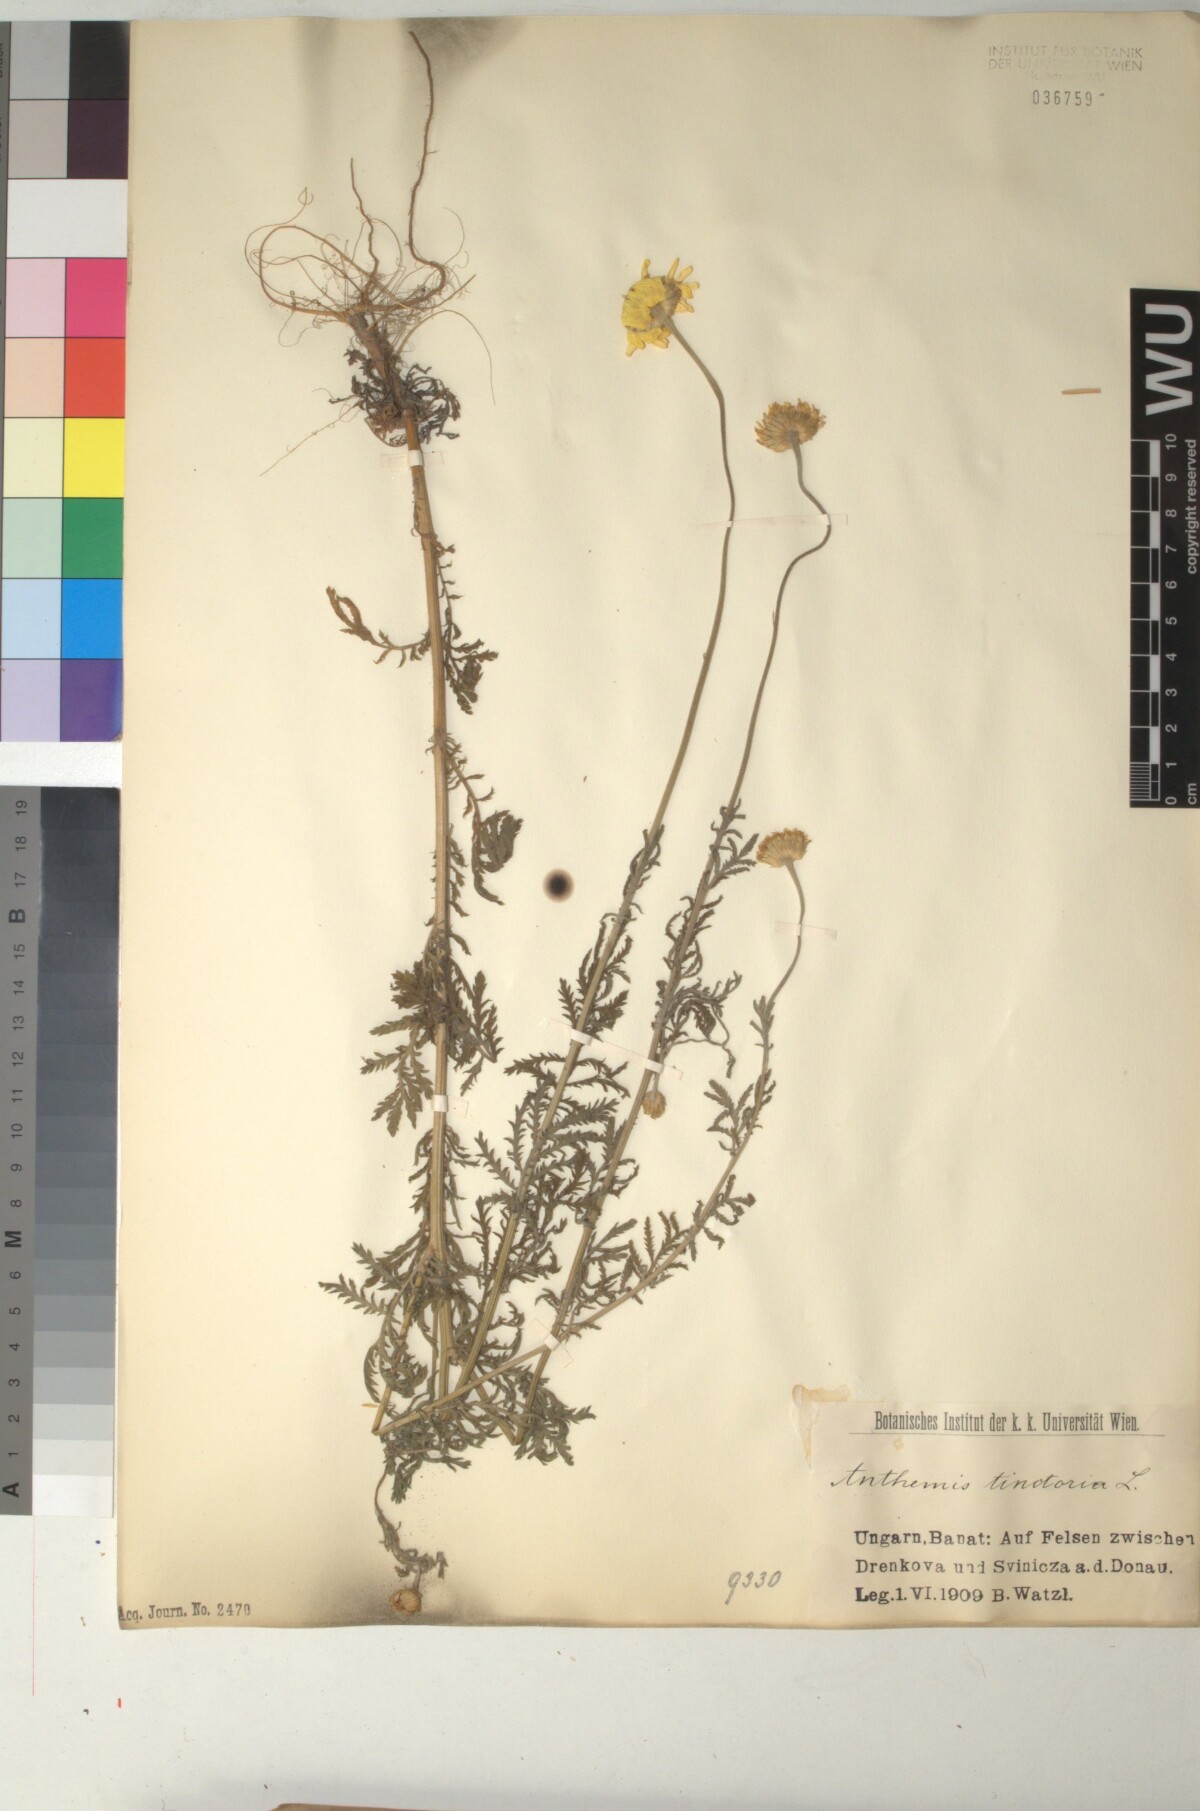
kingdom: Plantae
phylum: Tracheophyta
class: Magnoliopsida
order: Asterales
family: Asteraceae
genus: Cota
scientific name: Cota tinctoria
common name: Golden chamomile
